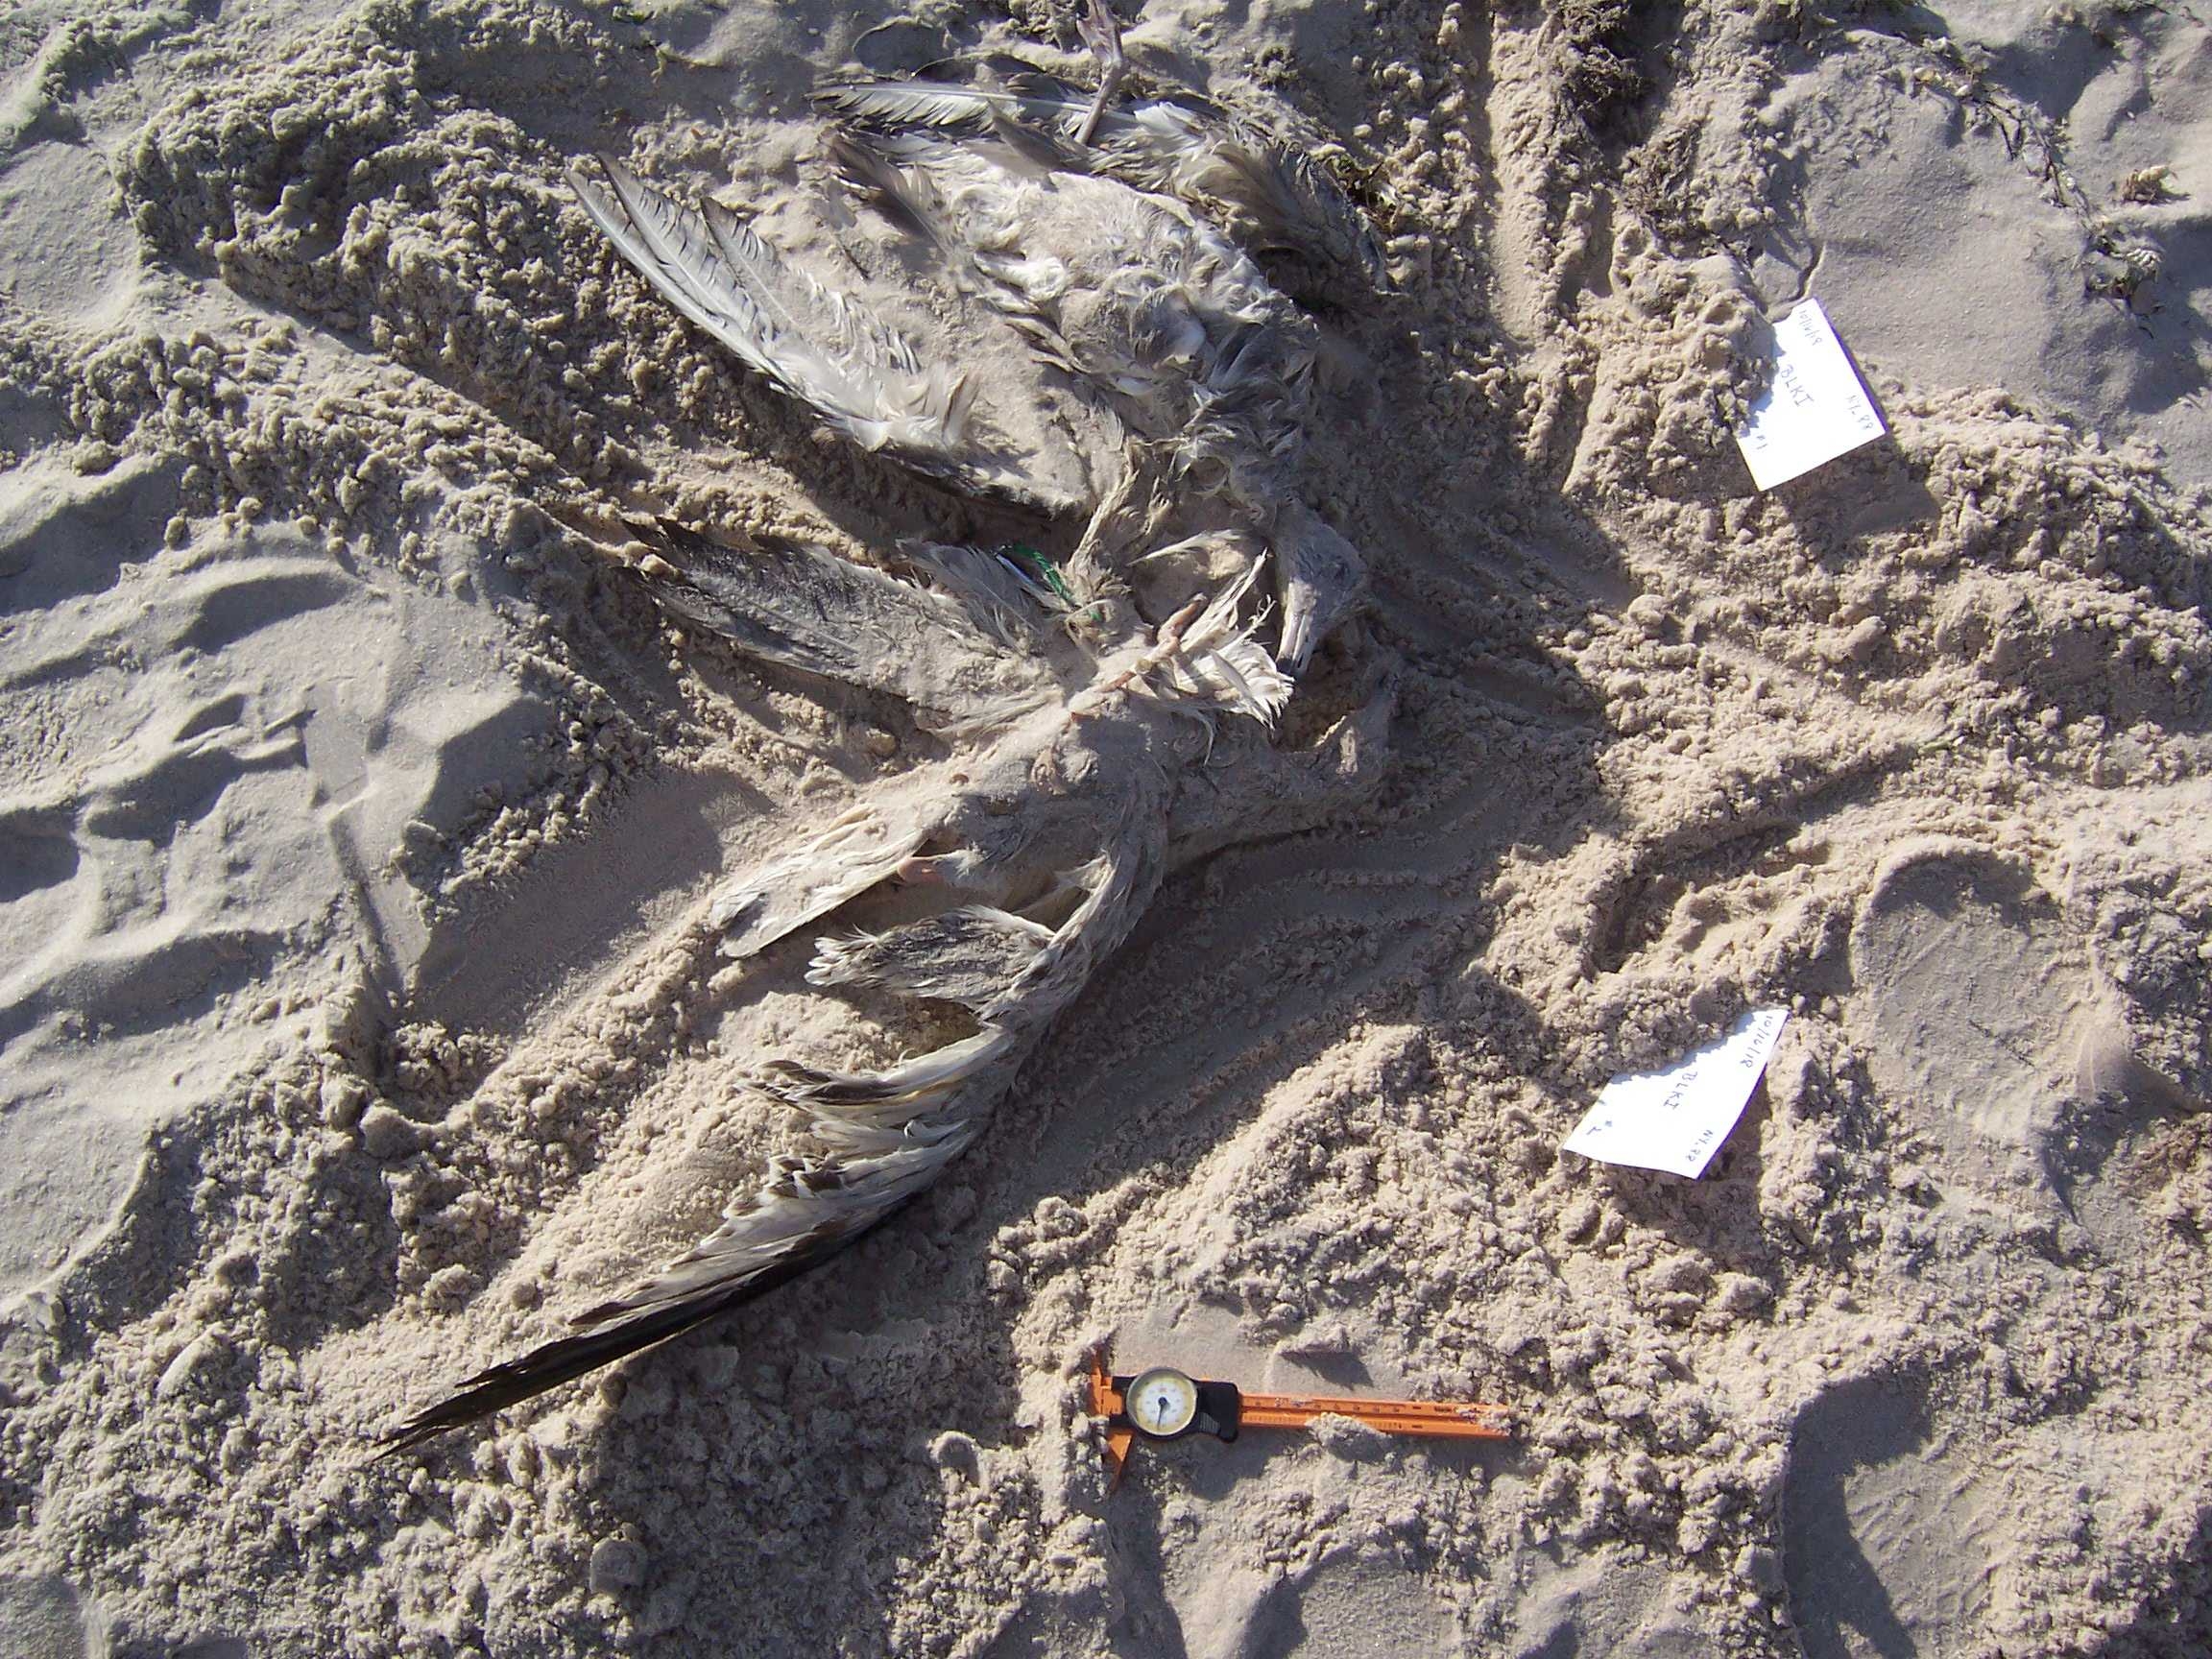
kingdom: Animalia
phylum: Chordata
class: Aves
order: Charadriiformes
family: Scolopacidae
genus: Calidris
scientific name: Calidris alba
